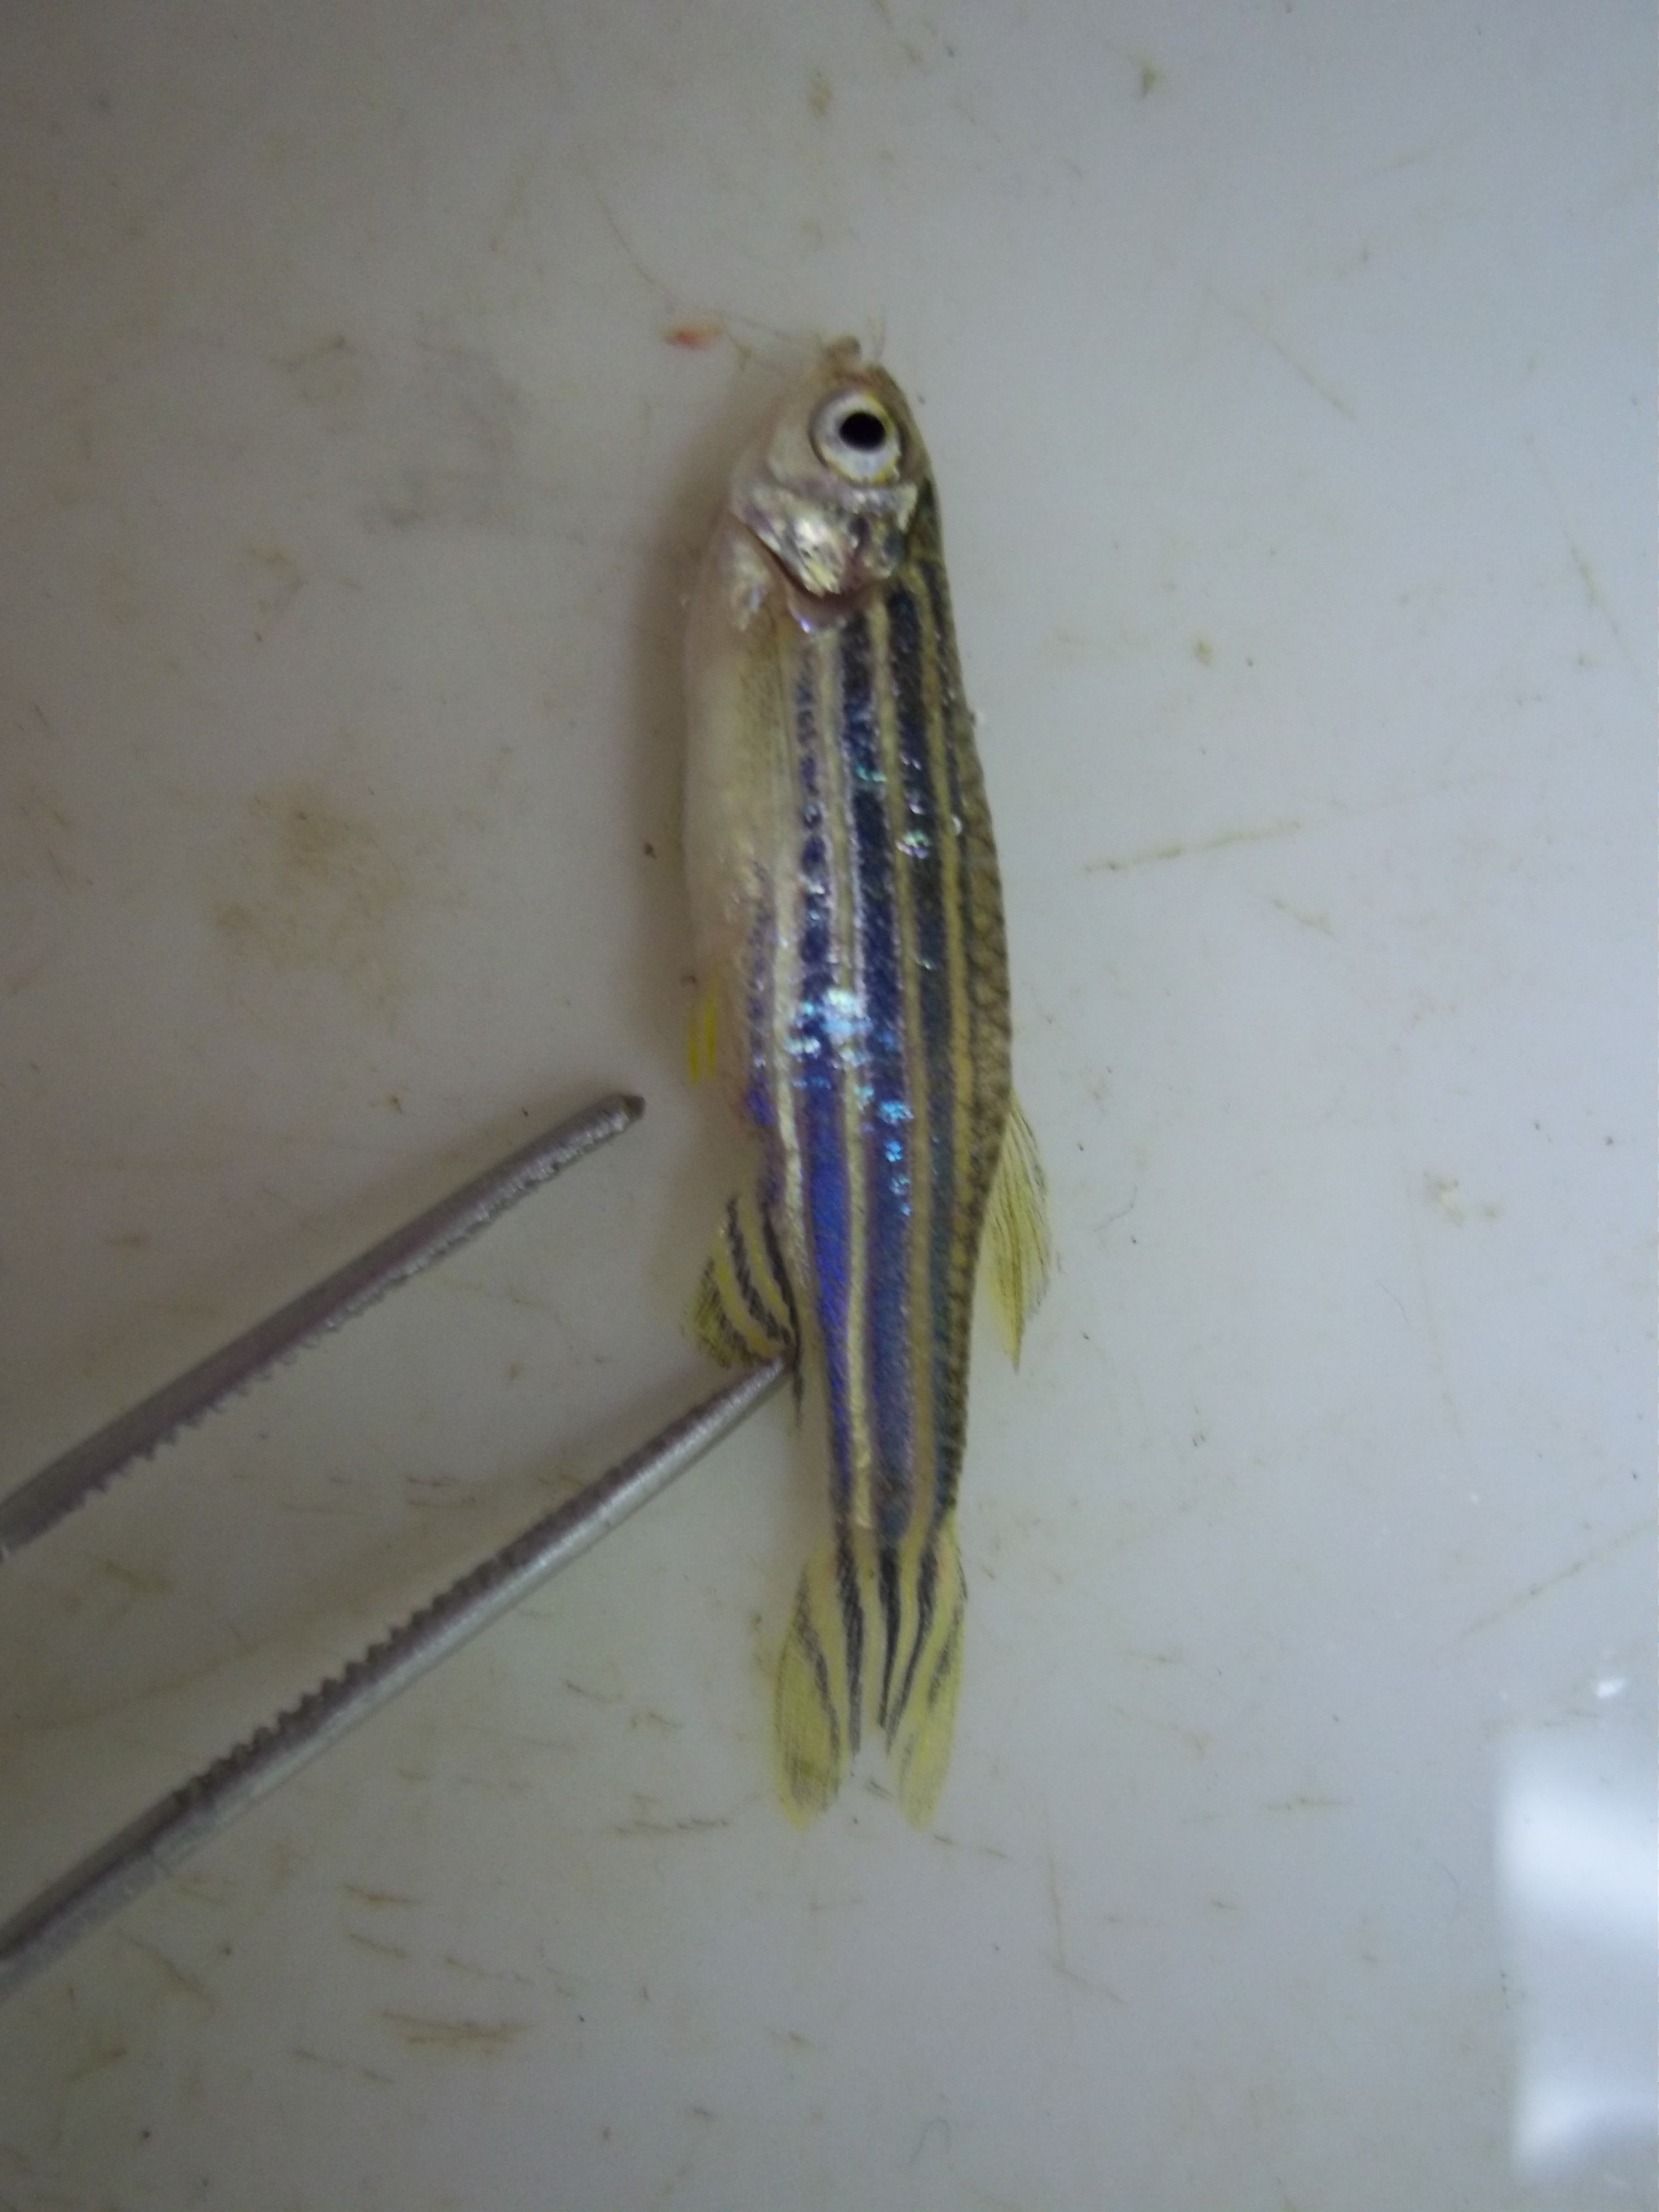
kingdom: Animalia
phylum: Chordata
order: Cypriniformes
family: Cyprinidae
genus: Danio
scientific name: Danio rerio
